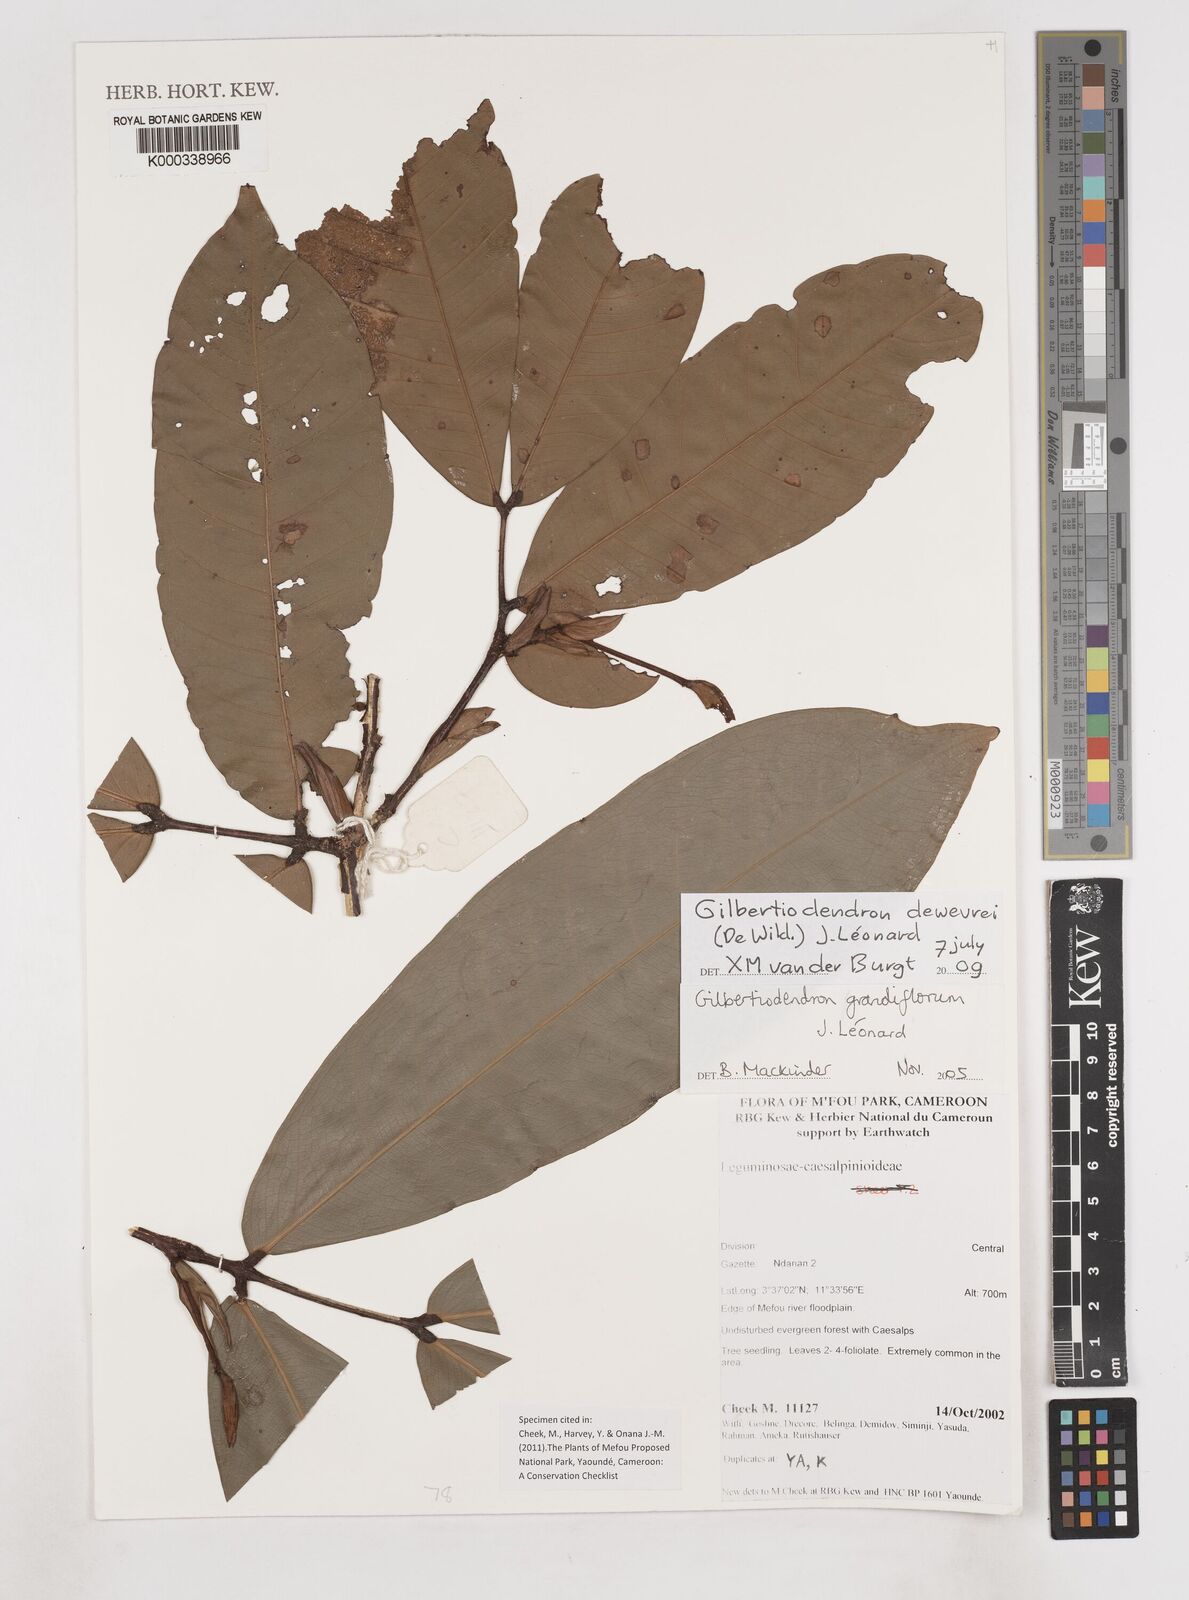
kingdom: Plantae
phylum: Tracheophyta
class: Magnoliopsida
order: Fabales
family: Fabaceae
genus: Gilbertiodendron
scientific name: Gilbertiodendron
